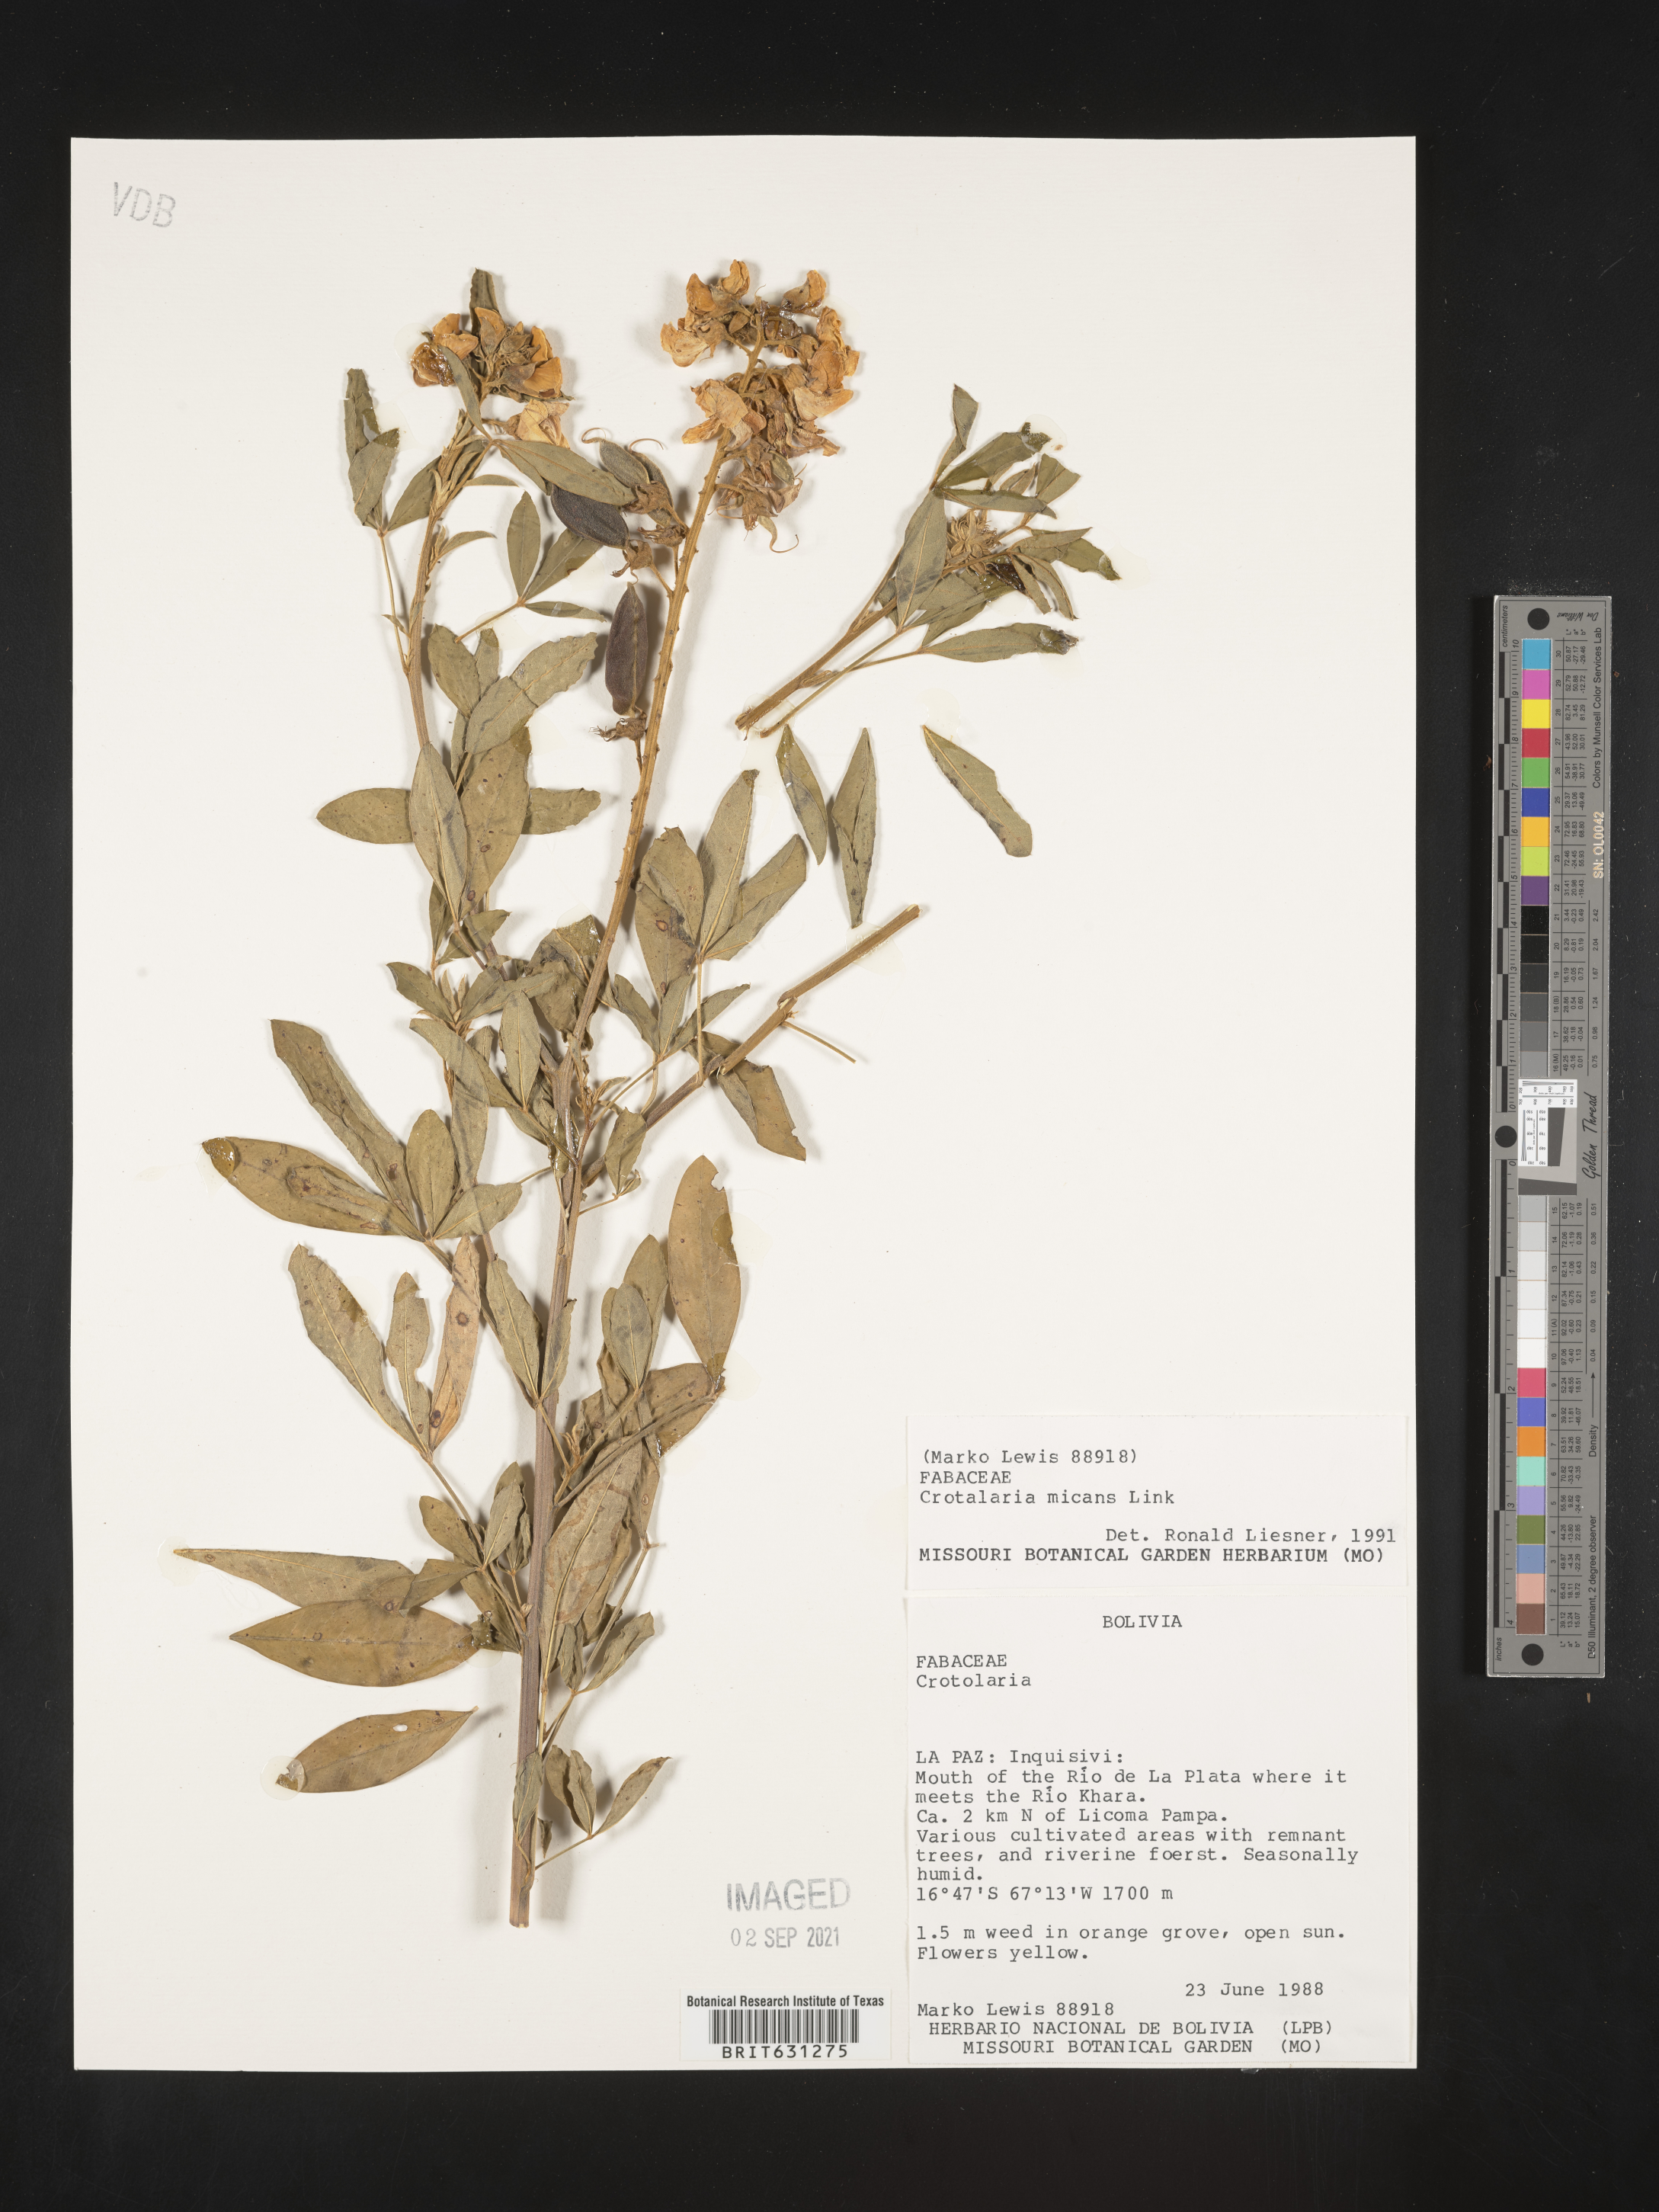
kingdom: Plantae
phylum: Tracheophyta
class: Magnoliopsida
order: Fabales
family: Fabaceae
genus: Crotalaria
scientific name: Crotalaria micans
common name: Caracas rattlebox
